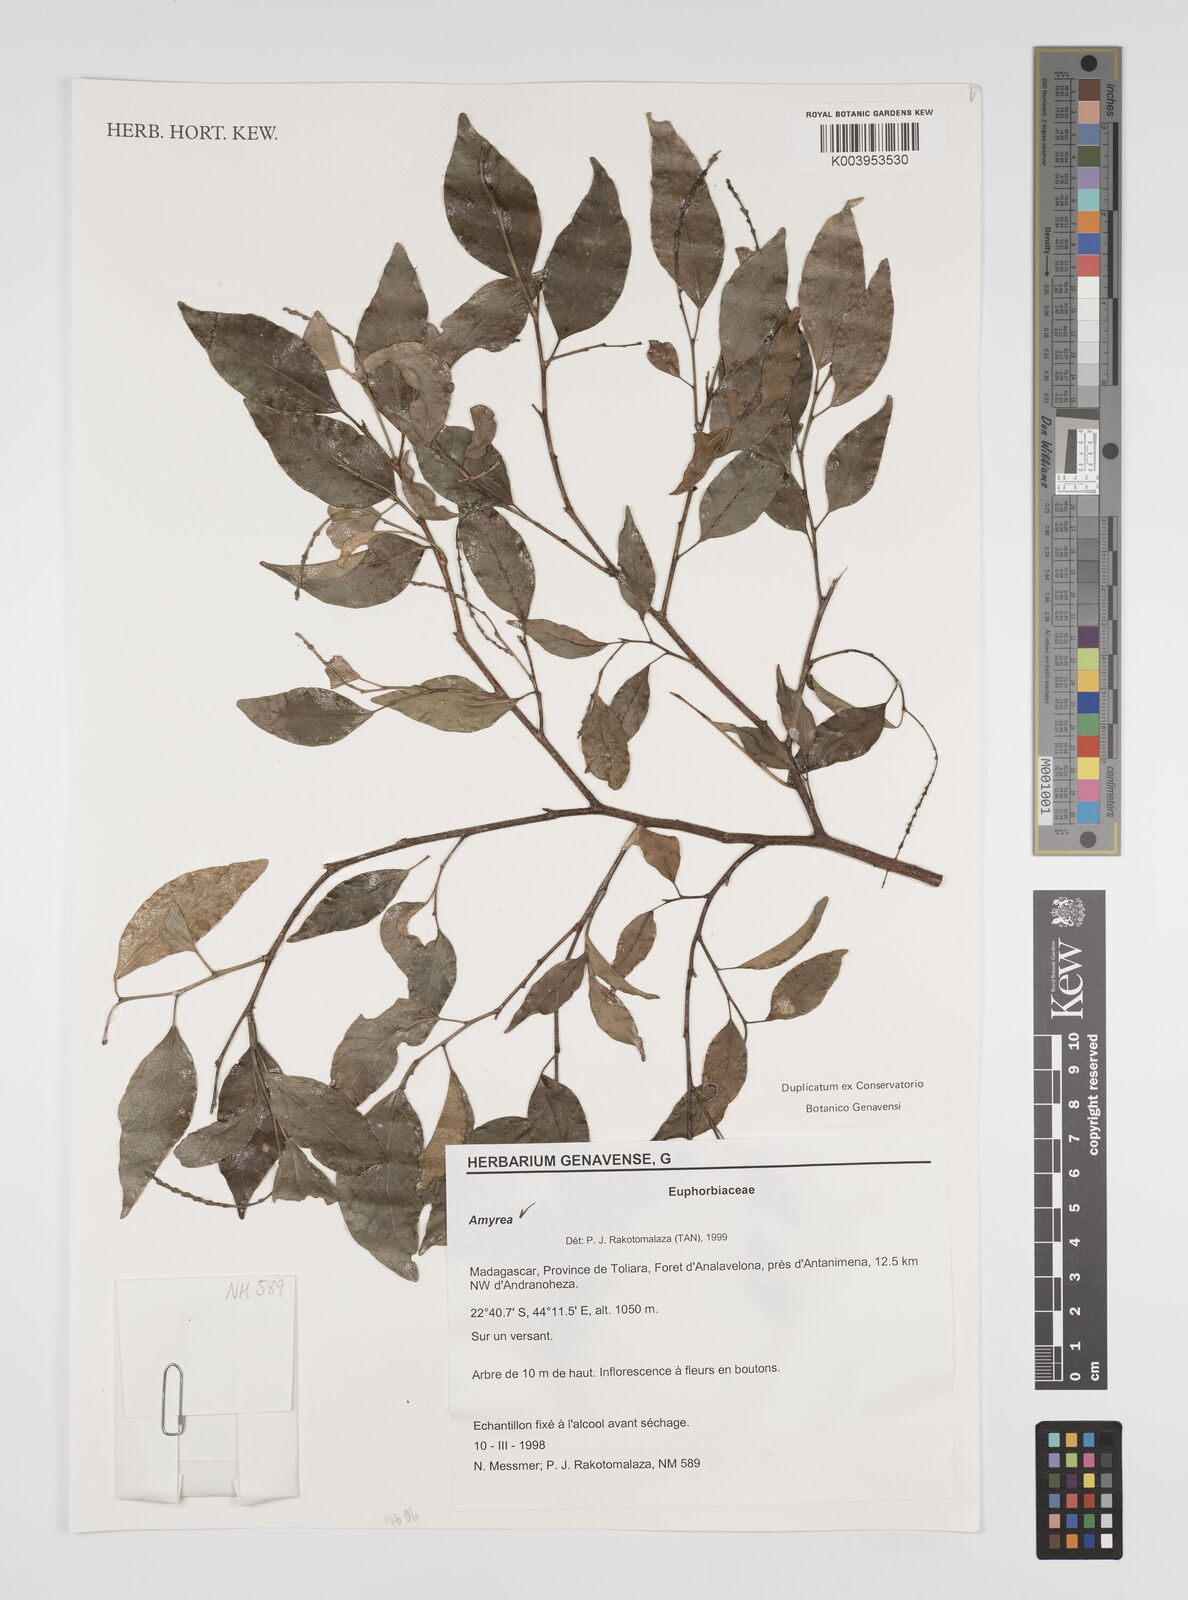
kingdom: Plantae
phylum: Tracheophyta
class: Magnoliopsida
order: Malpighiales
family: Euphorbiaceae
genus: Amyrea
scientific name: Amyrea
